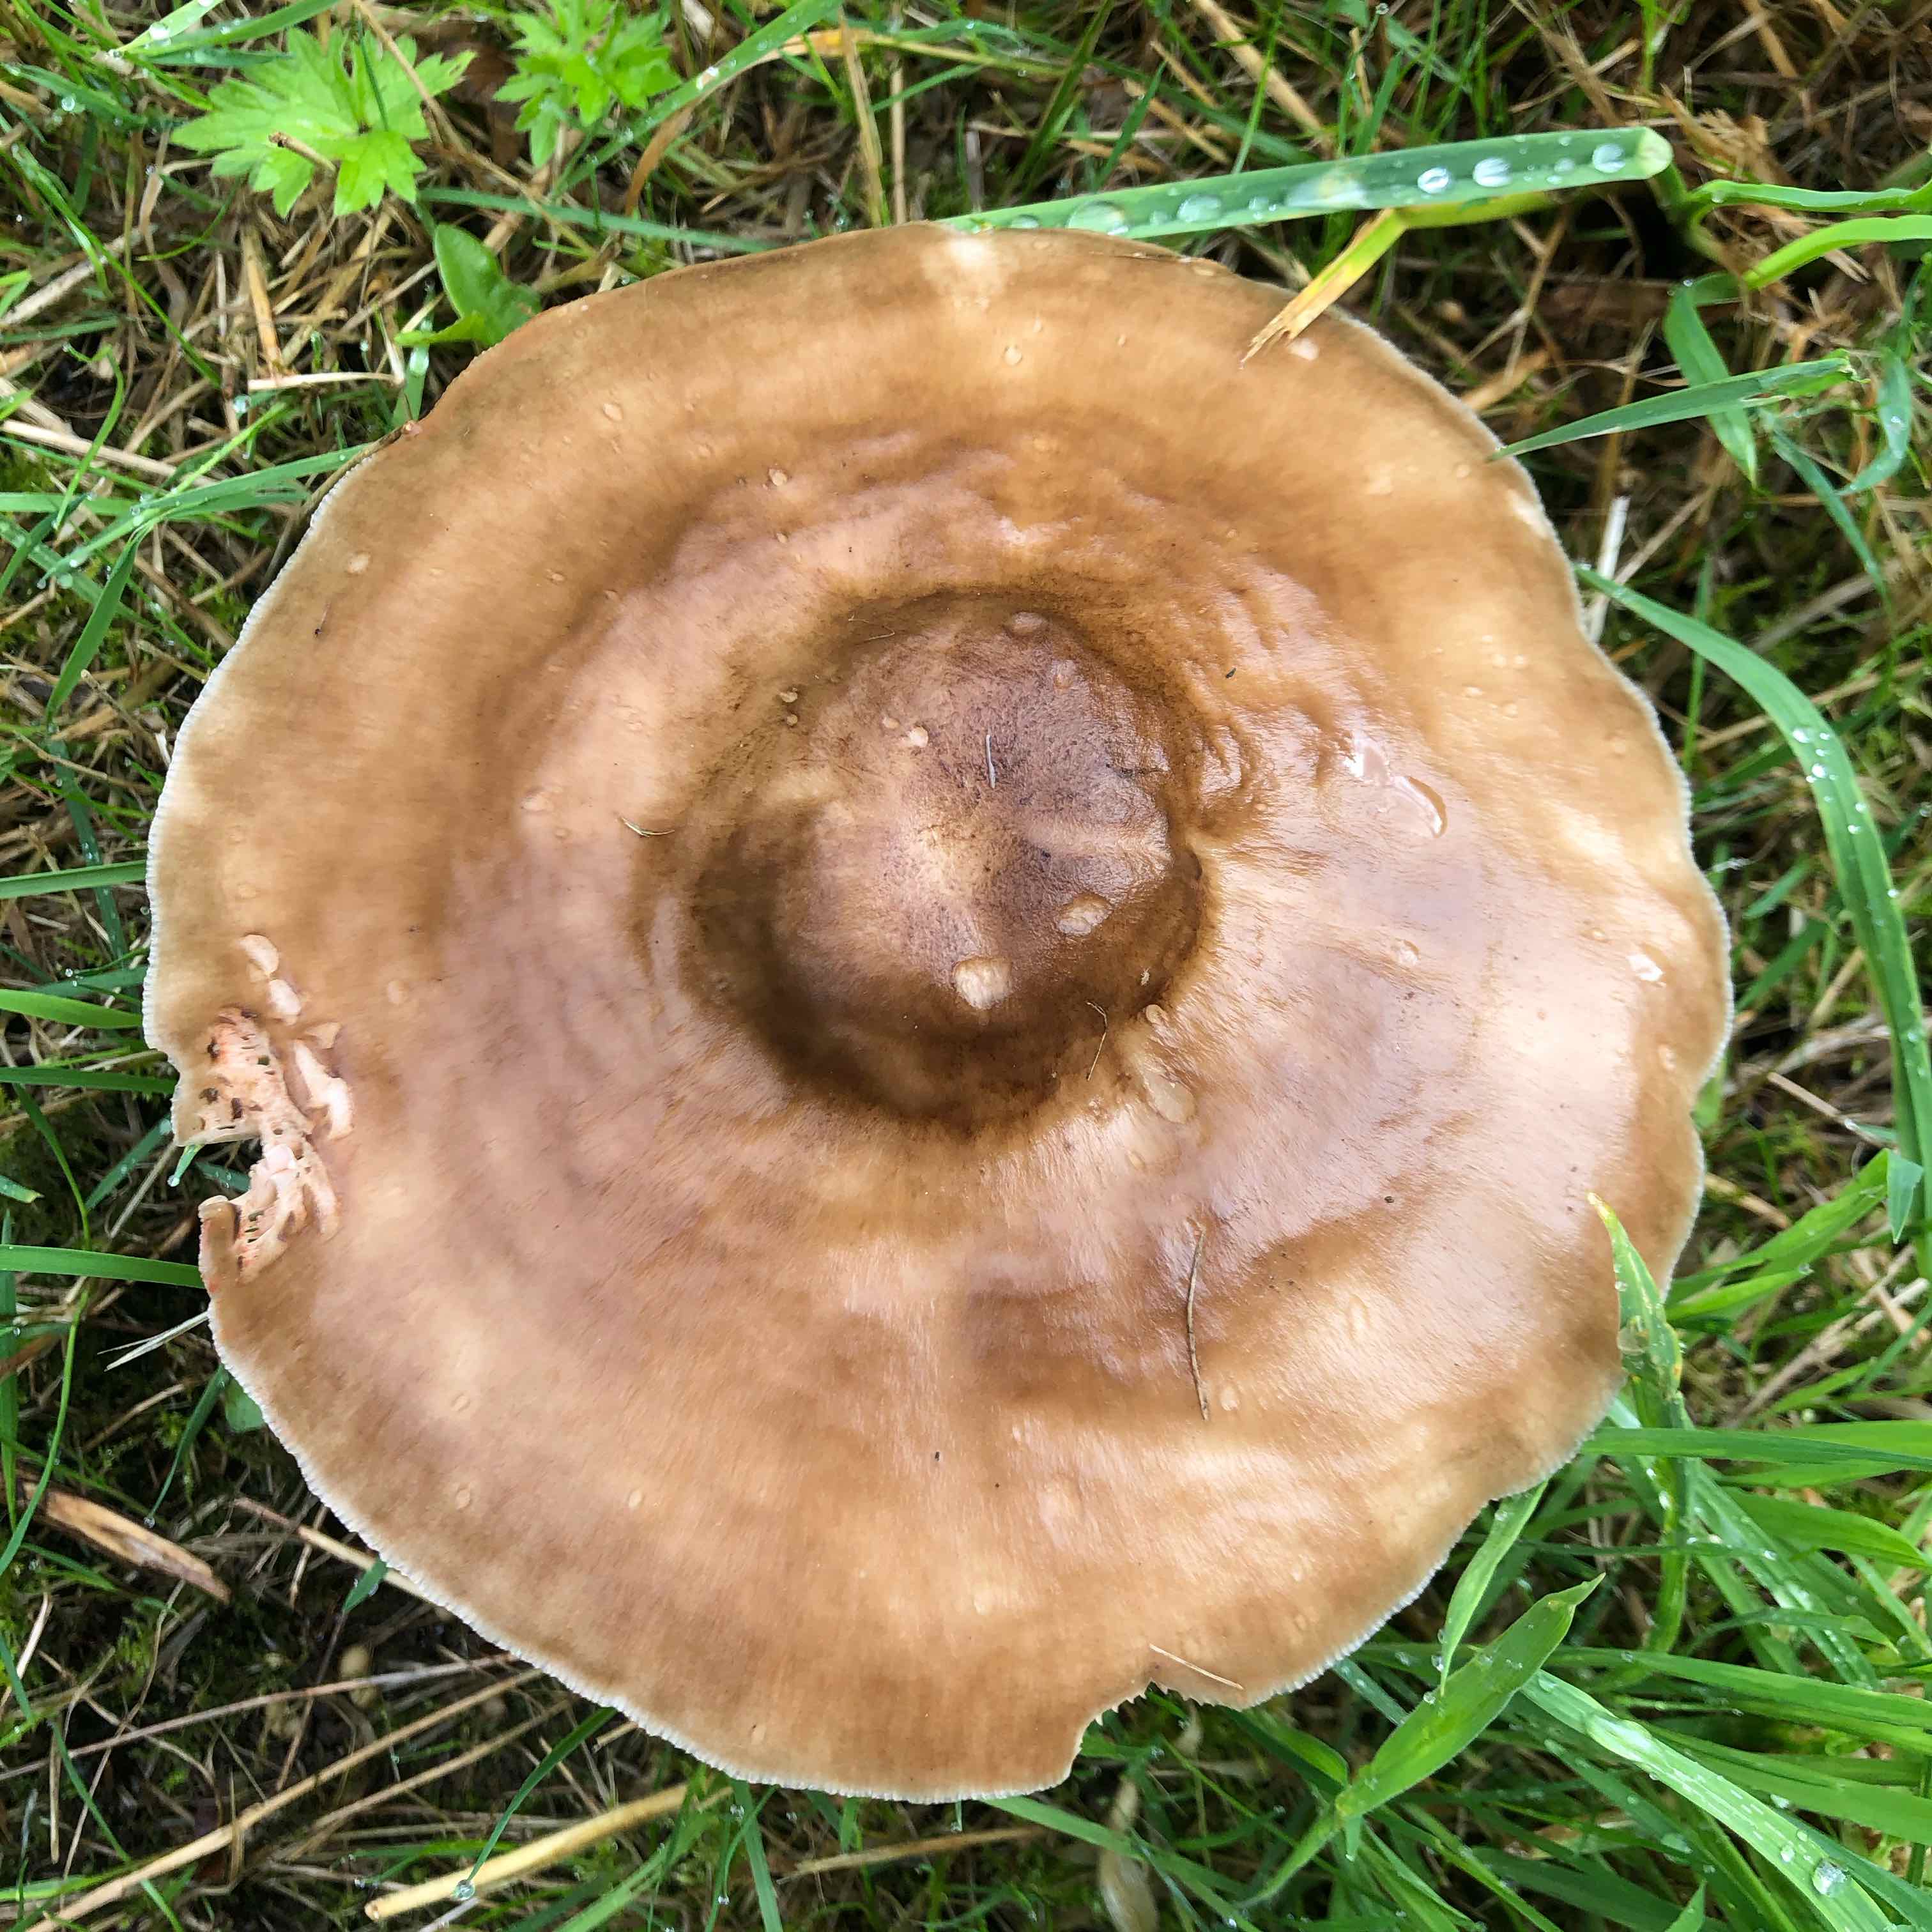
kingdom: Fungi
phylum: Basidiomycota
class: Agaricomycetes
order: Agaricales
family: Pluteaceae
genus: Pluteus
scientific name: Pluteus cervinus
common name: sodfarvet skærmhat
